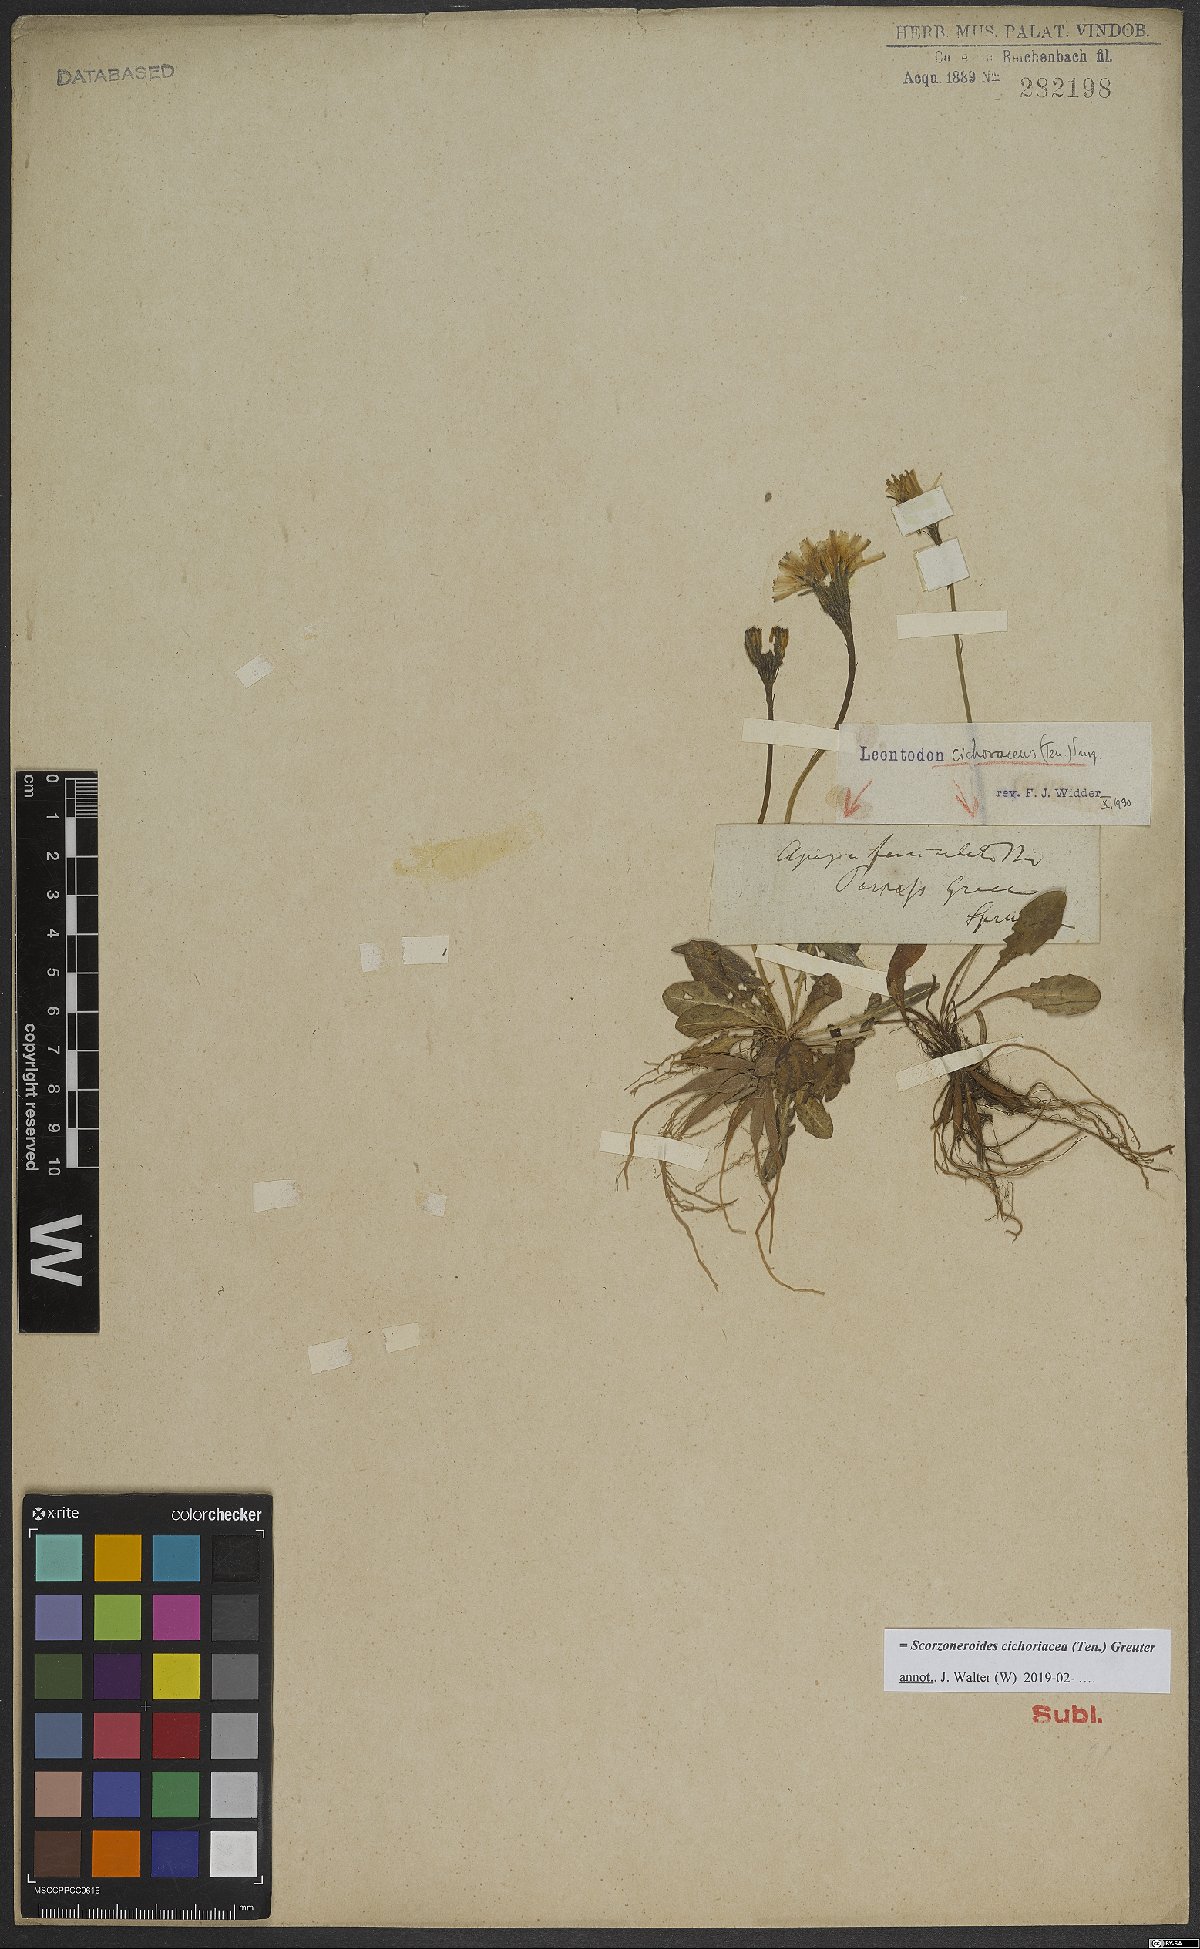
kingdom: Plantae
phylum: Tracheophyta
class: Magnoliopsida
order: Asterales
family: Asteraceae
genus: Scorzoneroides
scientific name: Scorzoneroides cichoriacea
